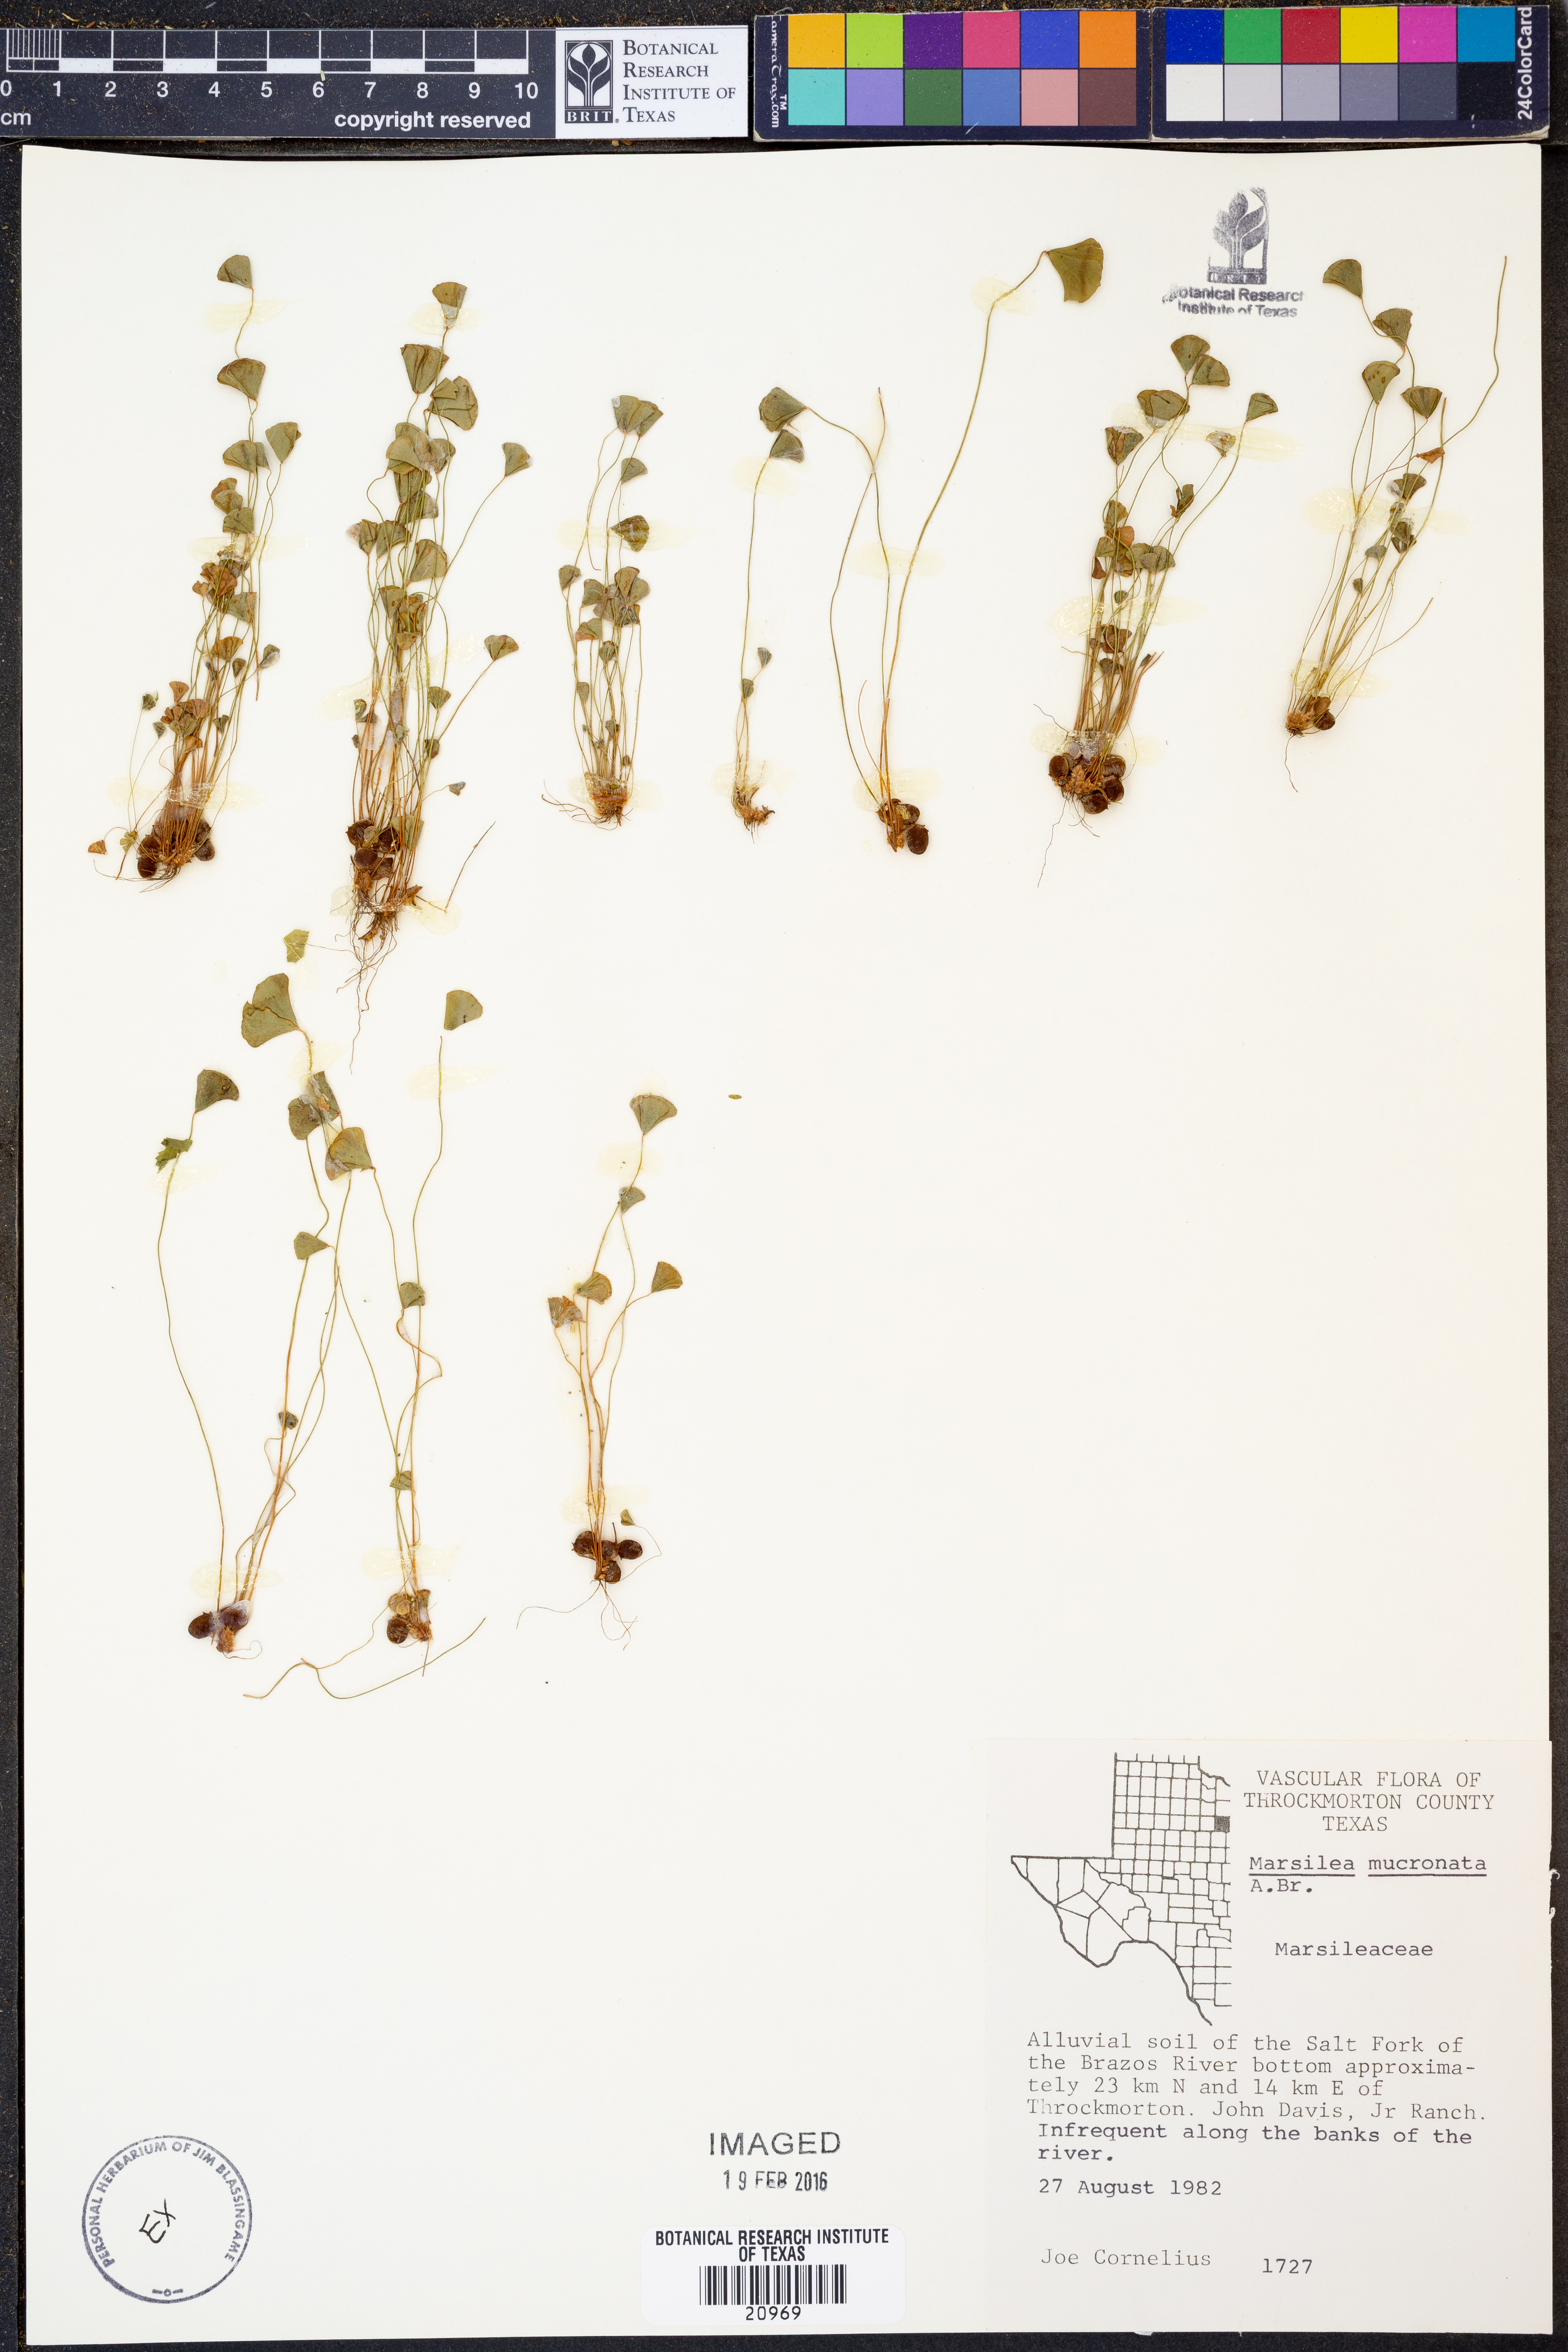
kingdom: Plantae
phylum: Tracheophyta
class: Polypodiopsida
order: Salviniales
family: Marsileaceae
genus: Marsilea
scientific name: Marsilea vestita
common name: Hooked-pepperwort
